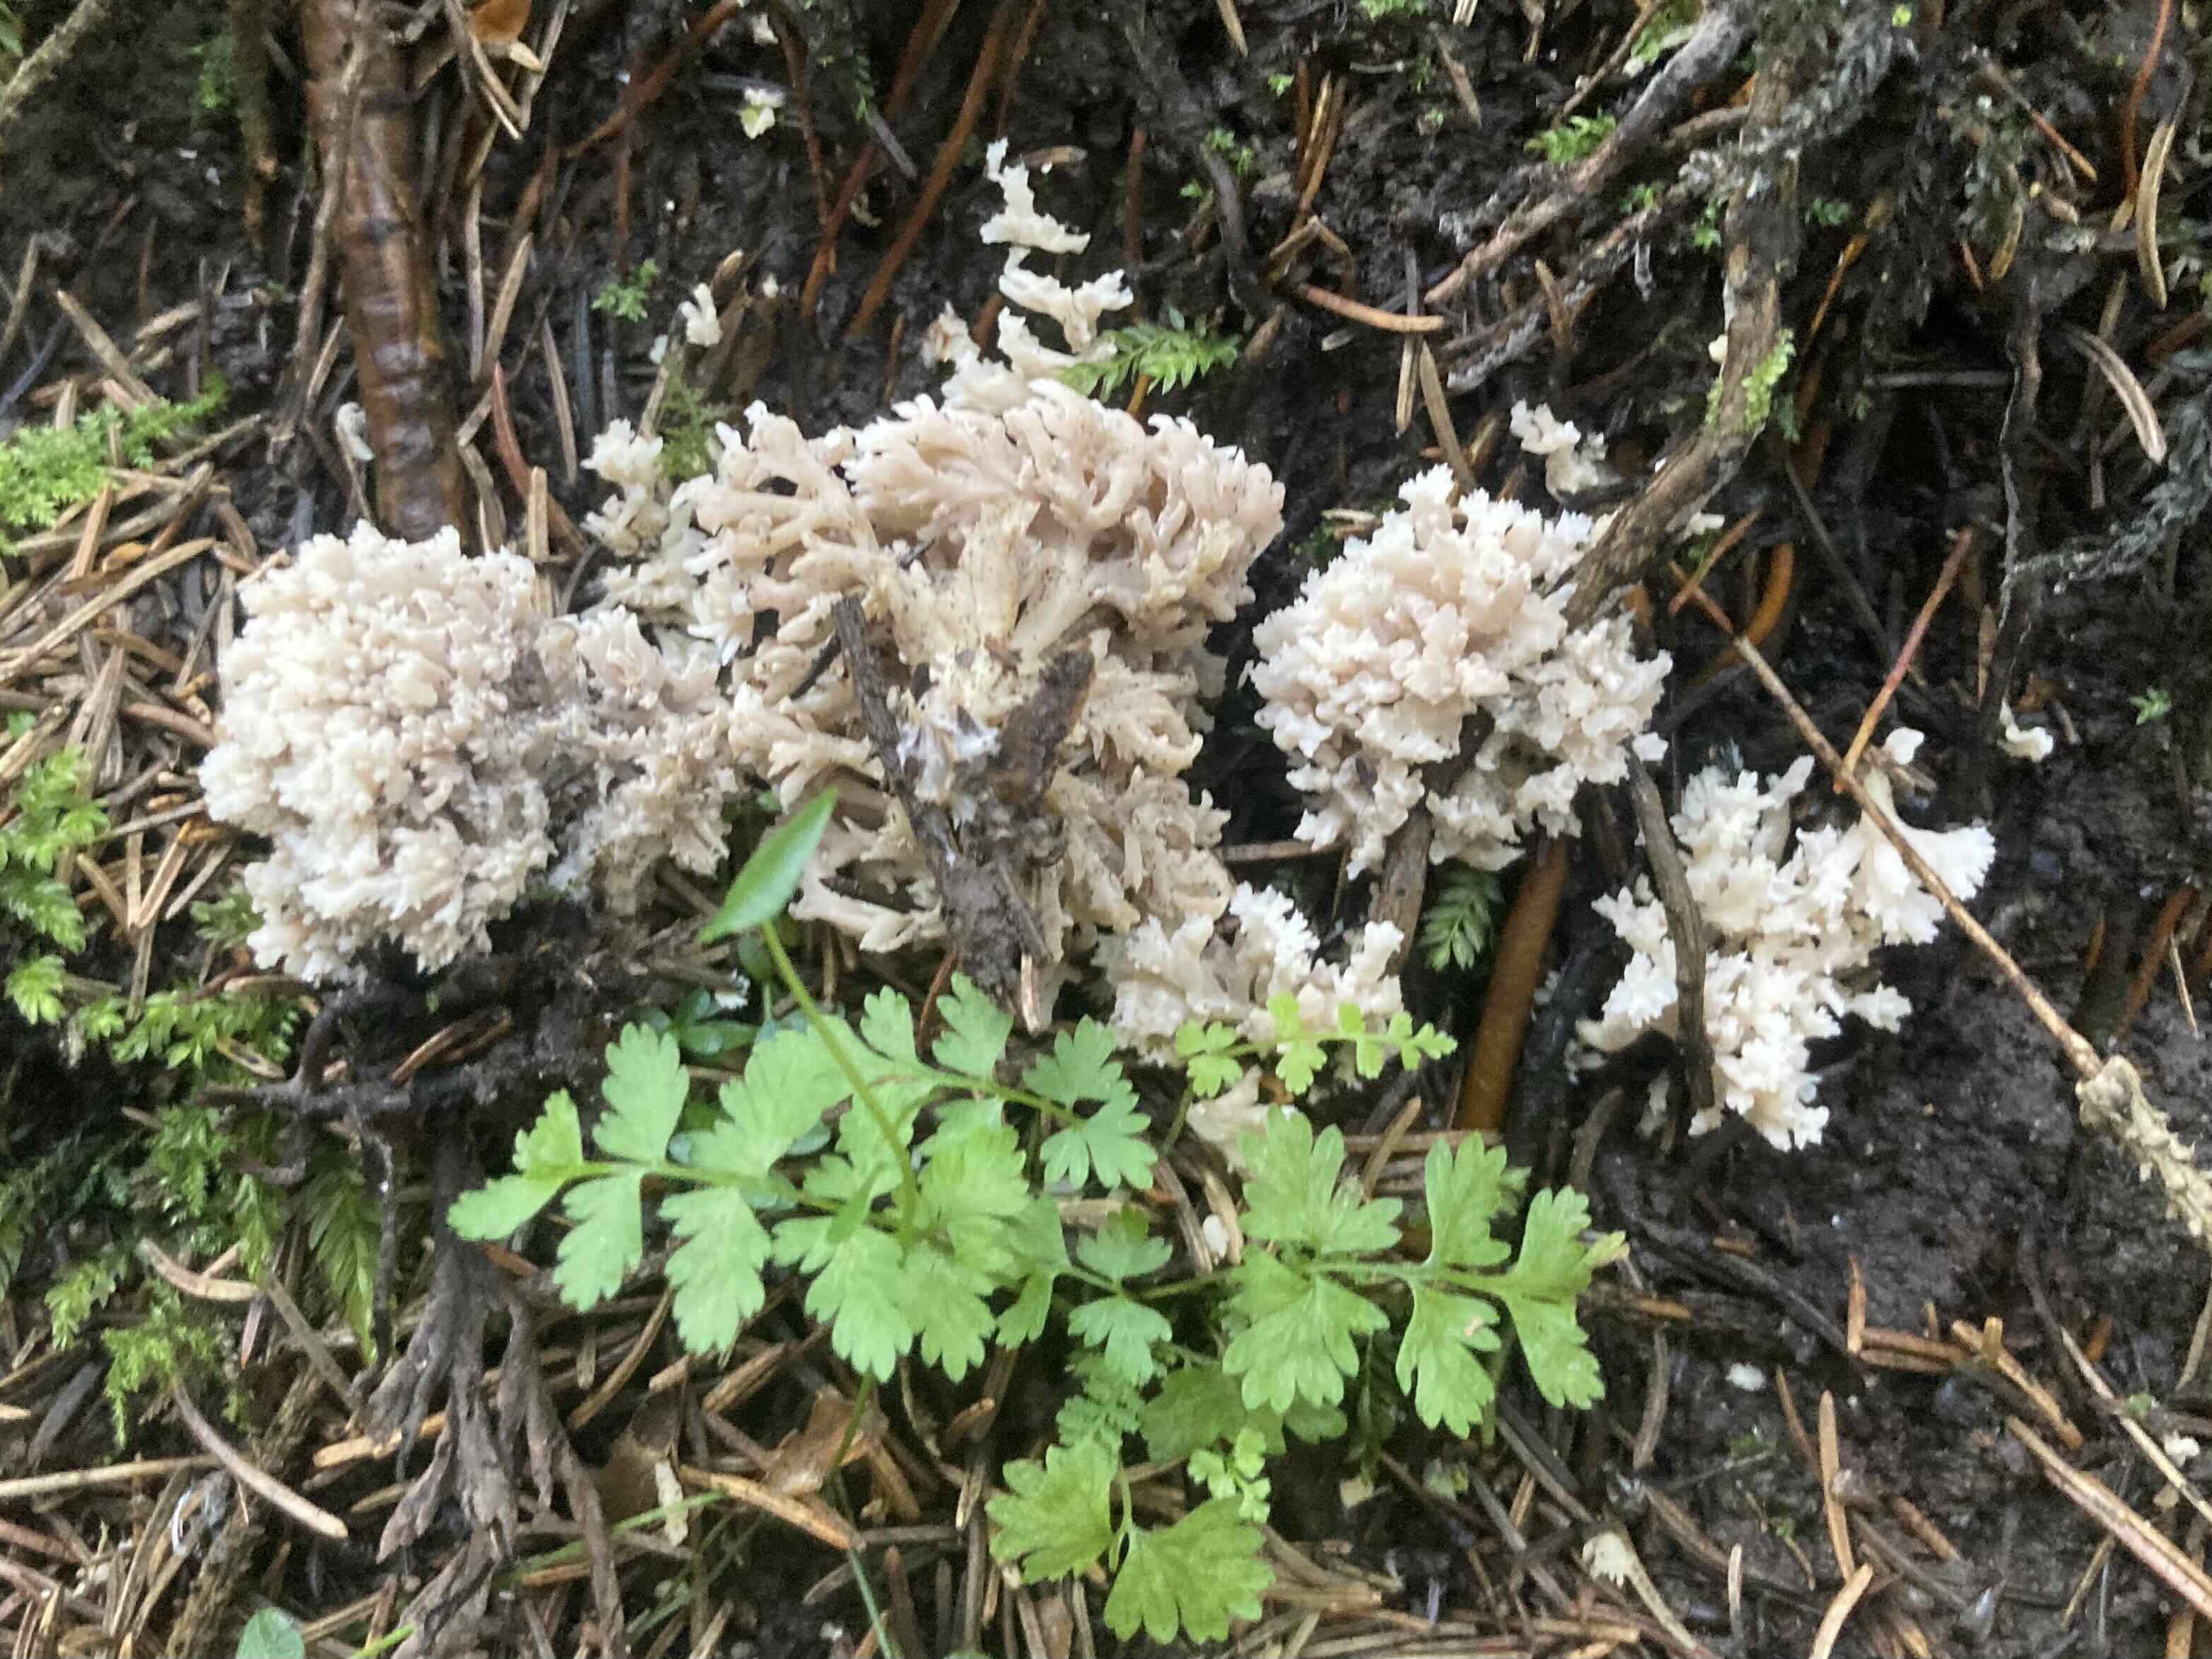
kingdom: Fungi
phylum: Basidiomycota
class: Agaricomycetes
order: Cantharellales
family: Hydnaceae
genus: Clavulina
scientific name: Clavulina
